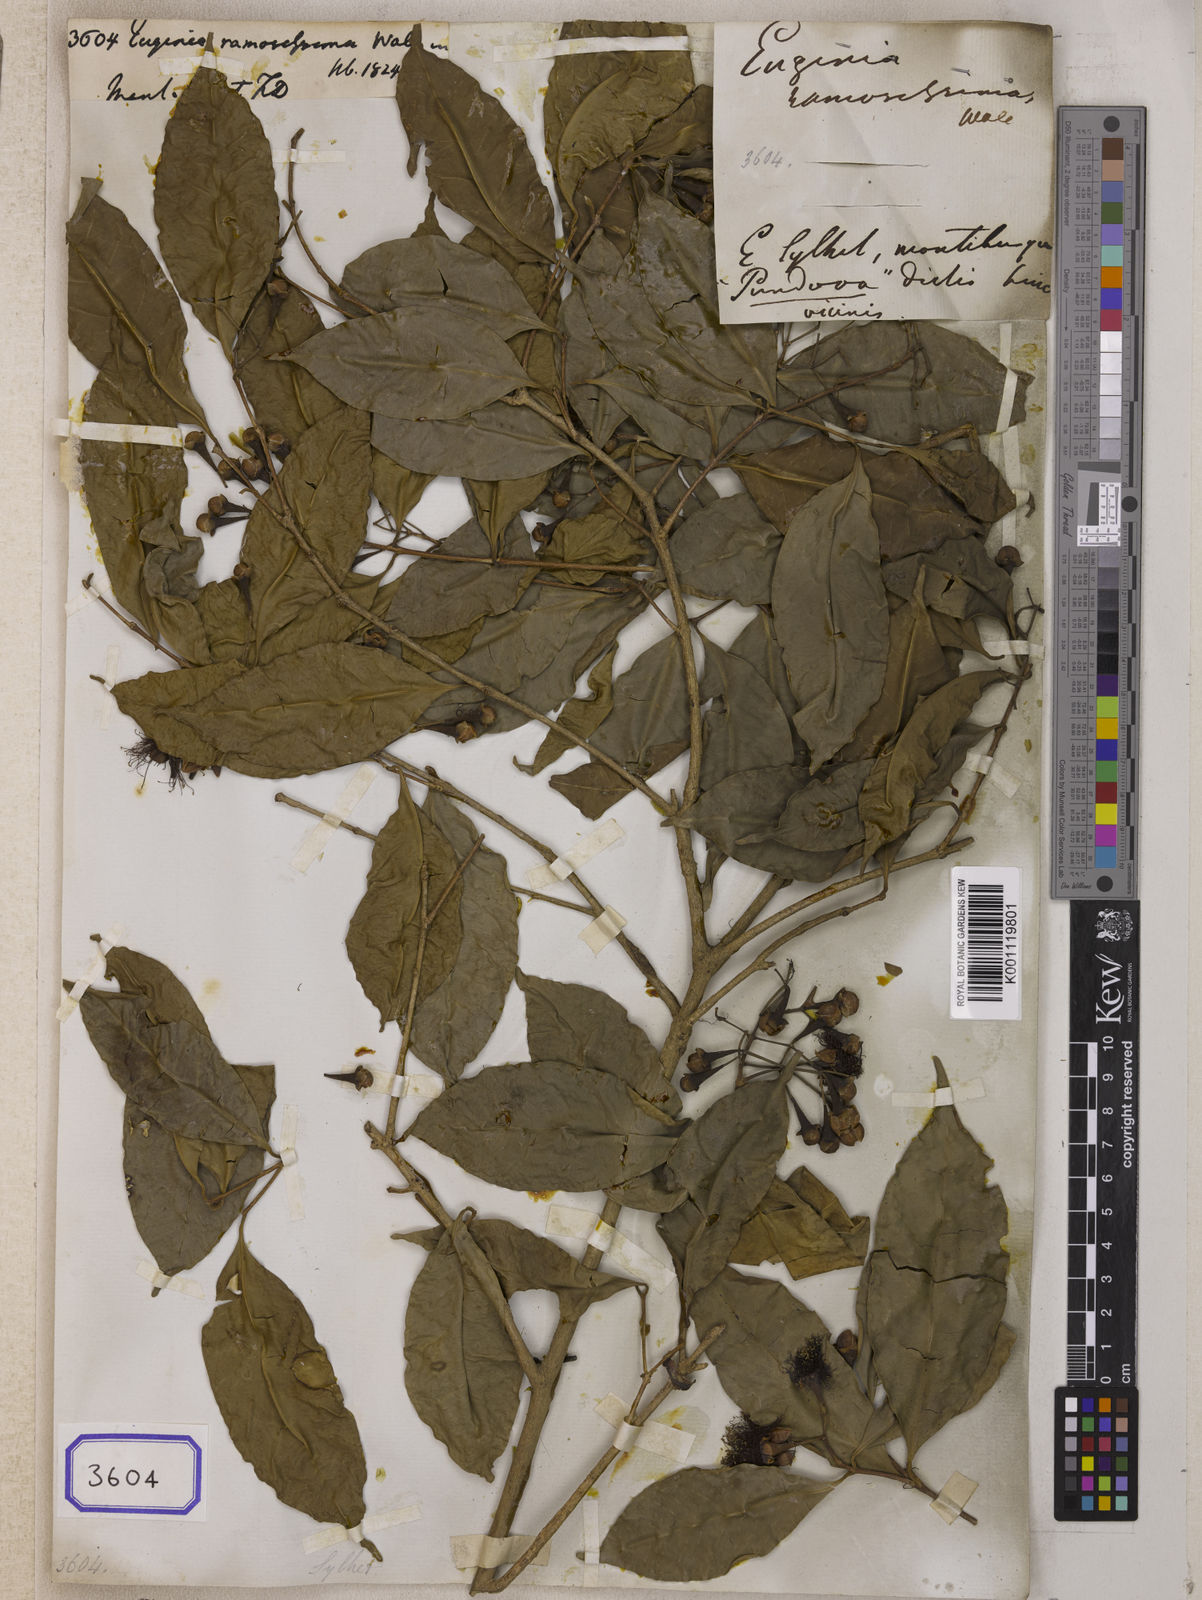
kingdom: Plantae
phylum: Tracheophyta
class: Magnoliopsida
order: Myrtales
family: Myrtaceae
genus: Eugenia
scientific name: Eugenia
